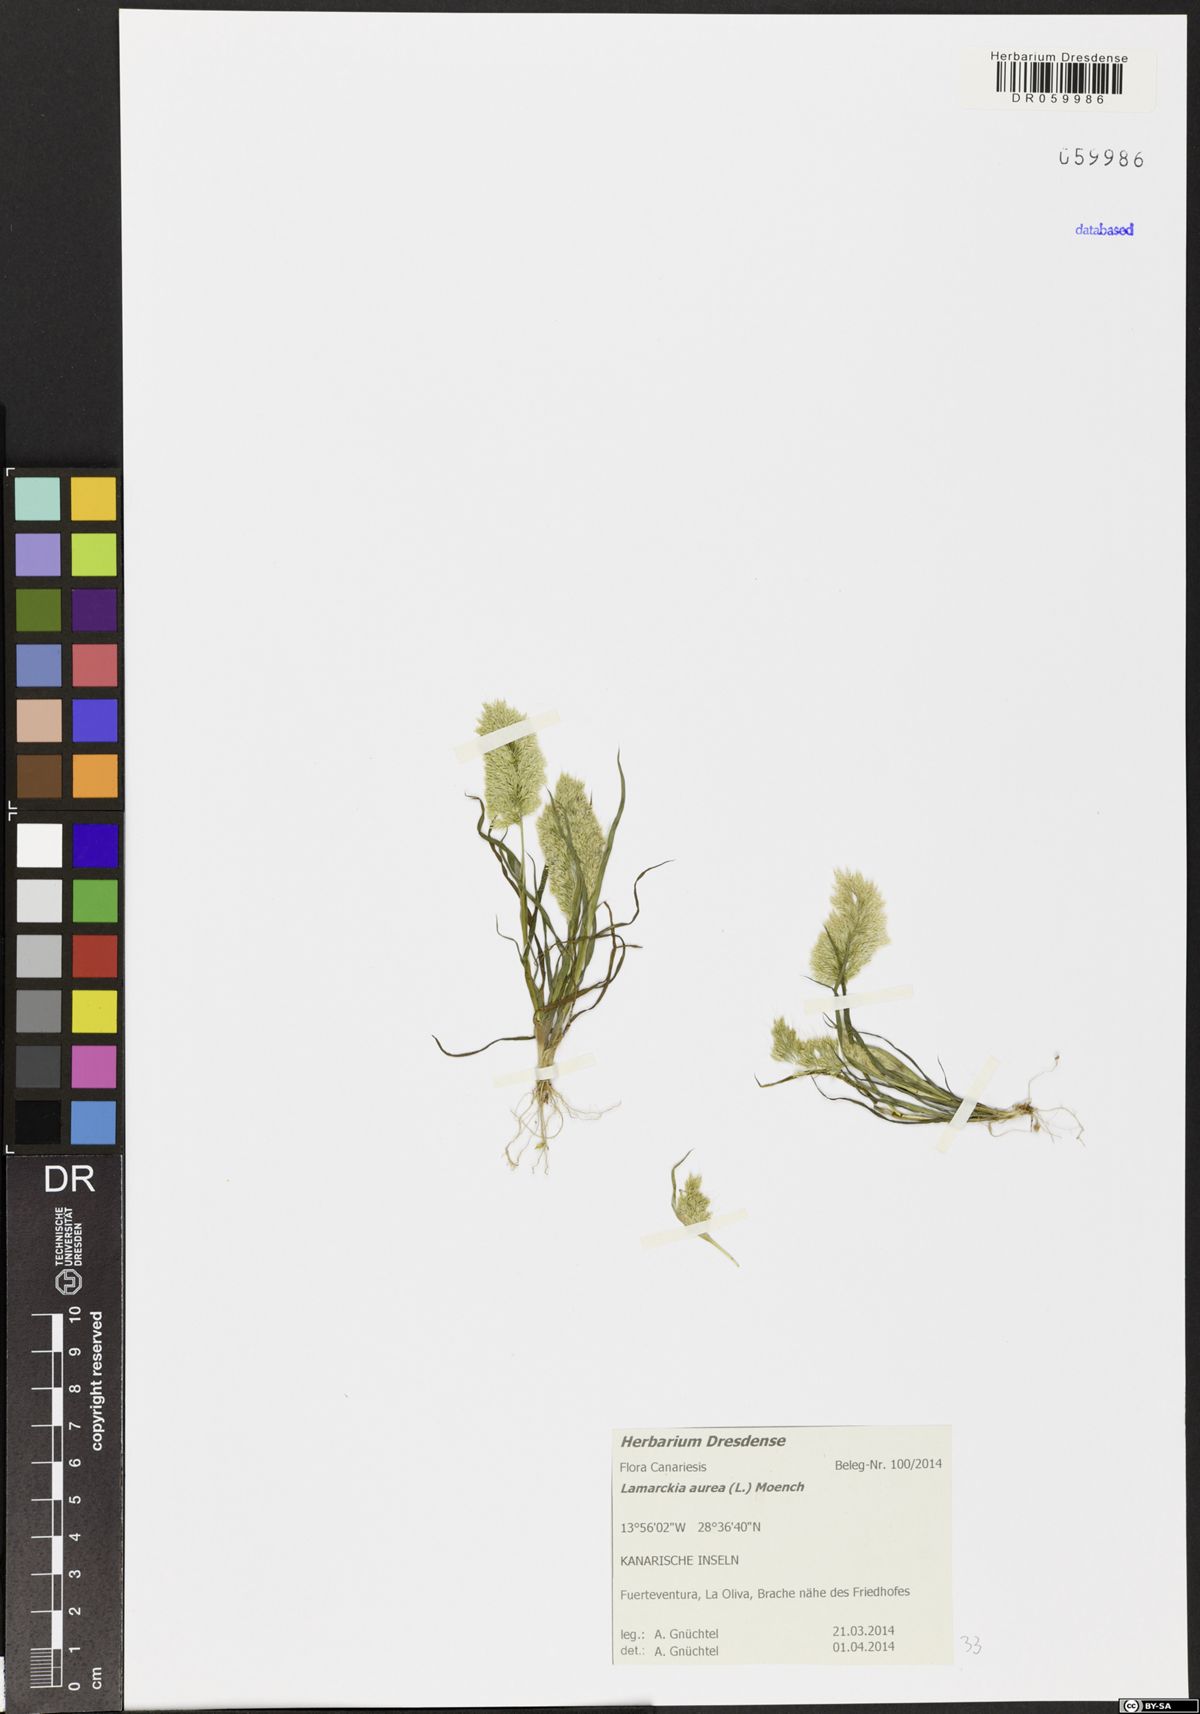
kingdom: Plantae
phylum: Tracheophyta
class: Liliopsida
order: Poales
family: Poaceae
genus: Lamarckia
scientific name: Lamarckia aurea
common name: Golden dog's-tail
